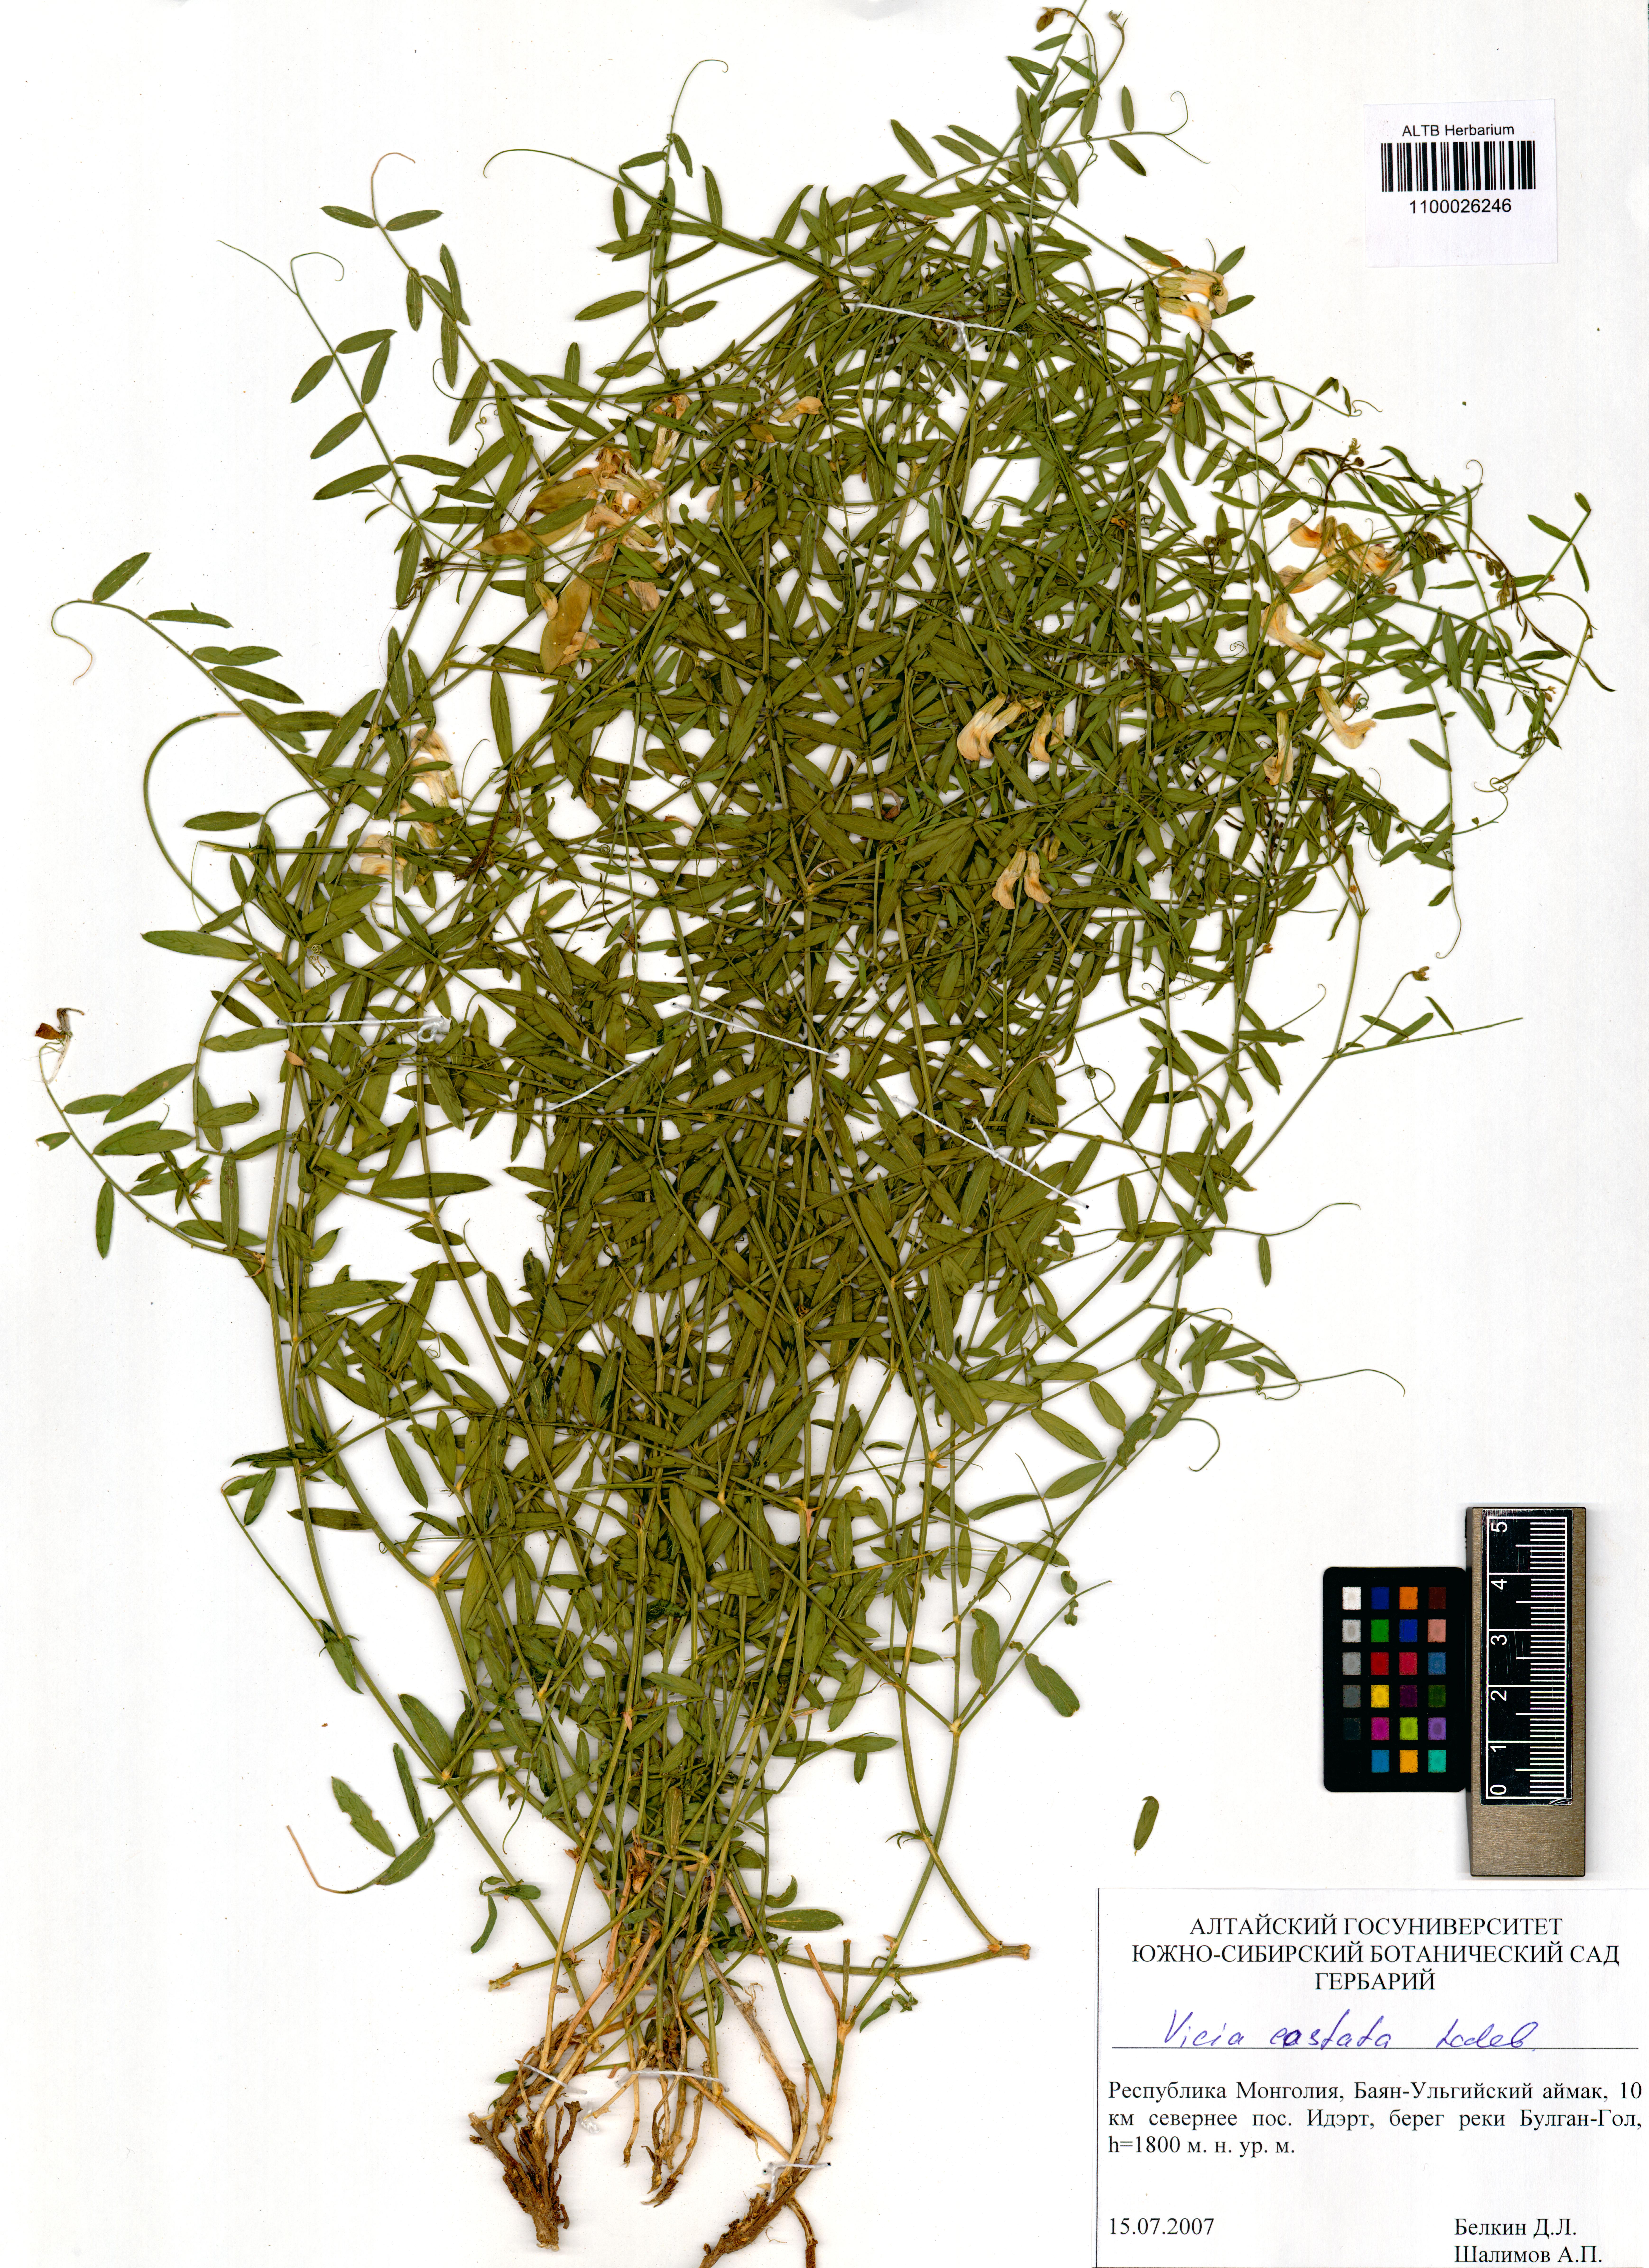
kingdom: Plantae
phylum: Tracheophyta
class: Magnoliopsida
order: Fabales
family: Fabaceae
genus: Vicia
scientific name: Vicia costata
